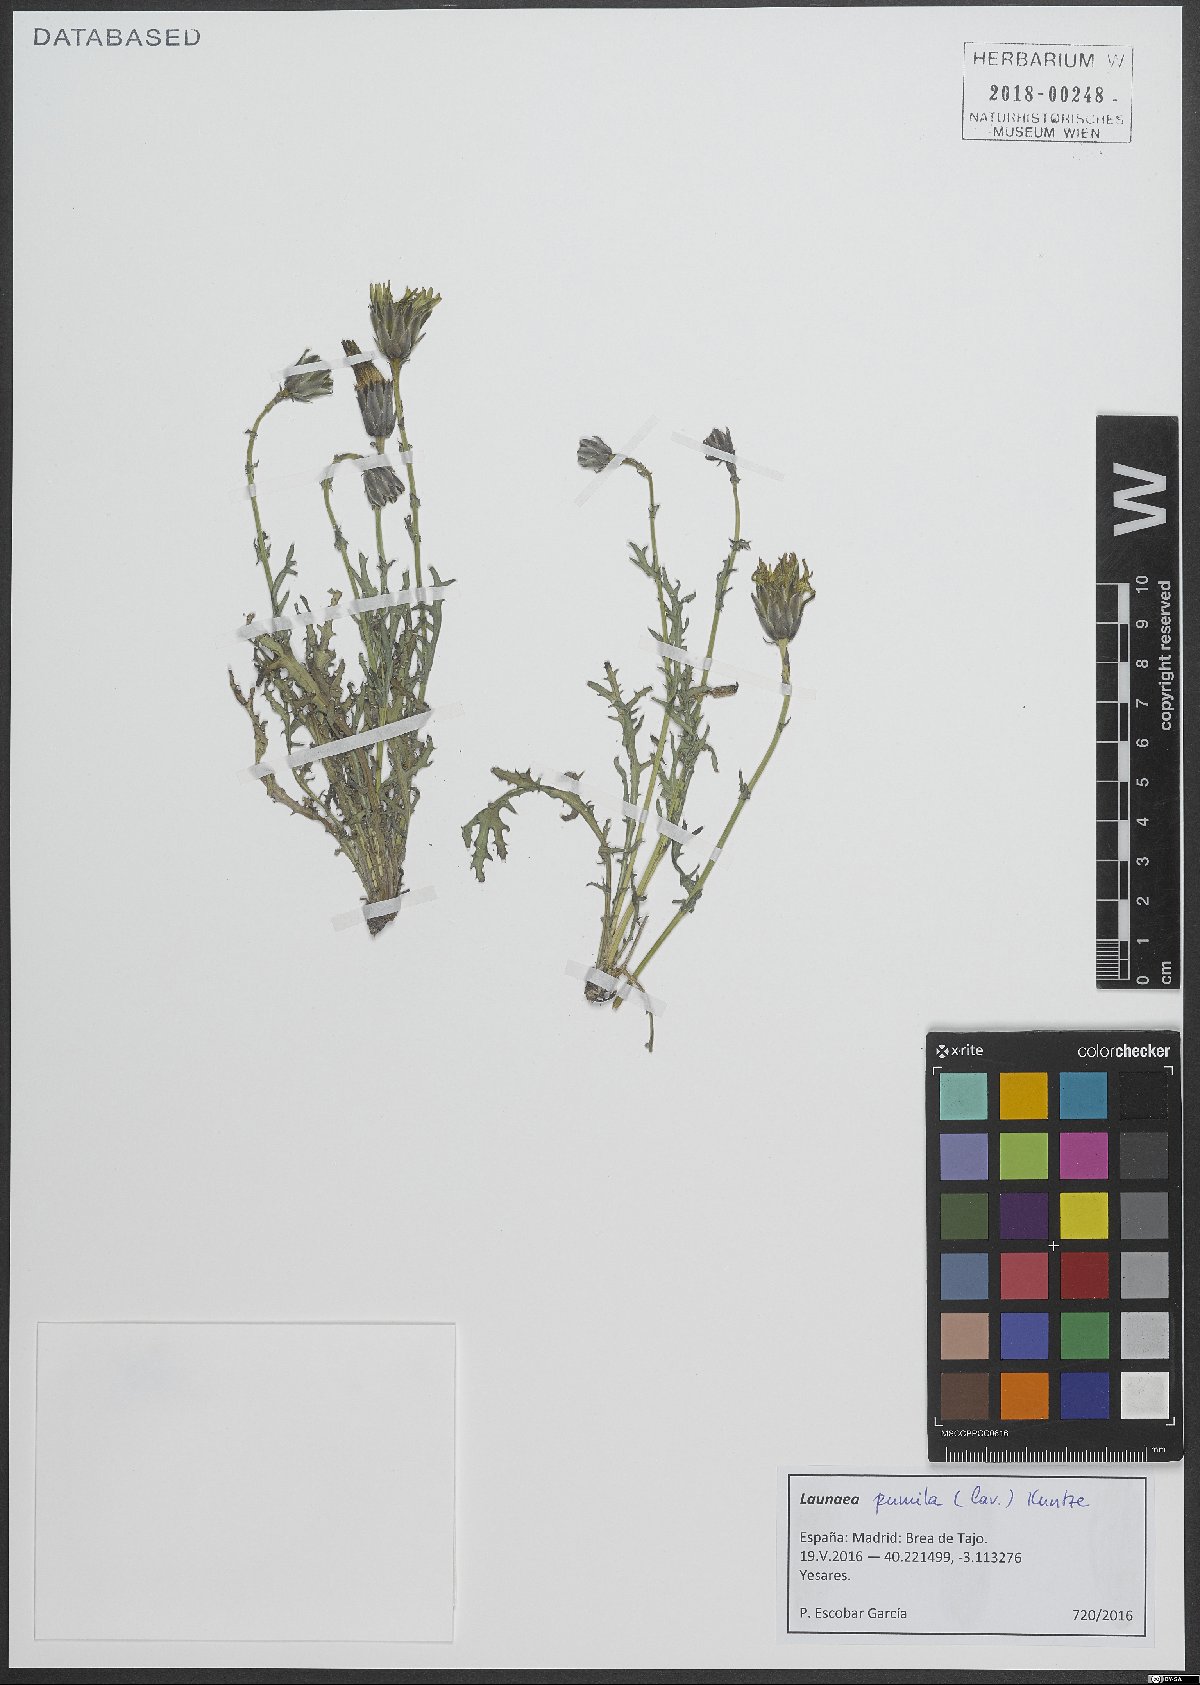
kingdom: Plantae
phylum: Tracheophyta
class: Magnoliopsida
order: Asterales
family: Asteraceae
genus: Launaea
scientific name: Launaea pumila
